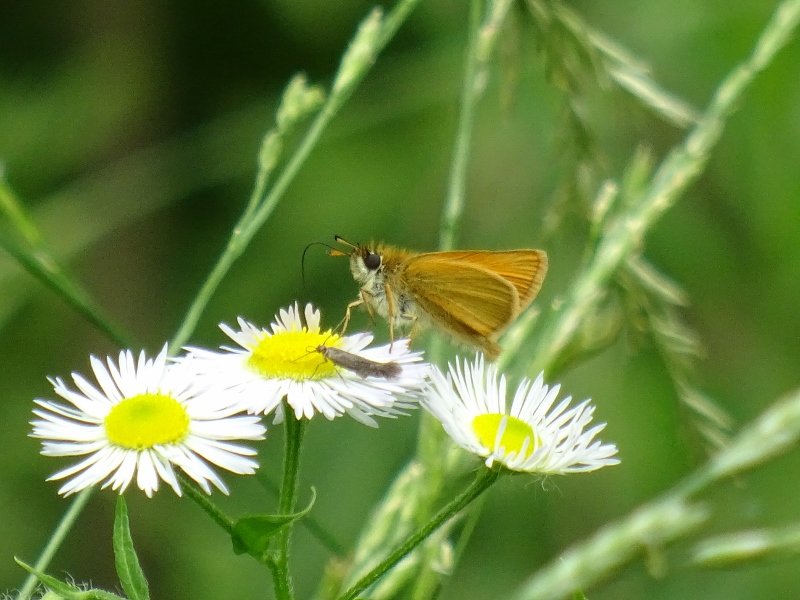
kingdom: Animalia
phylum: Arthropoda
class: Insecta
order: Lepidoptera
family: Hesperiidae
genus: Thymelicus
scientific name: Thymelicus lineola
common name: European Skipper
